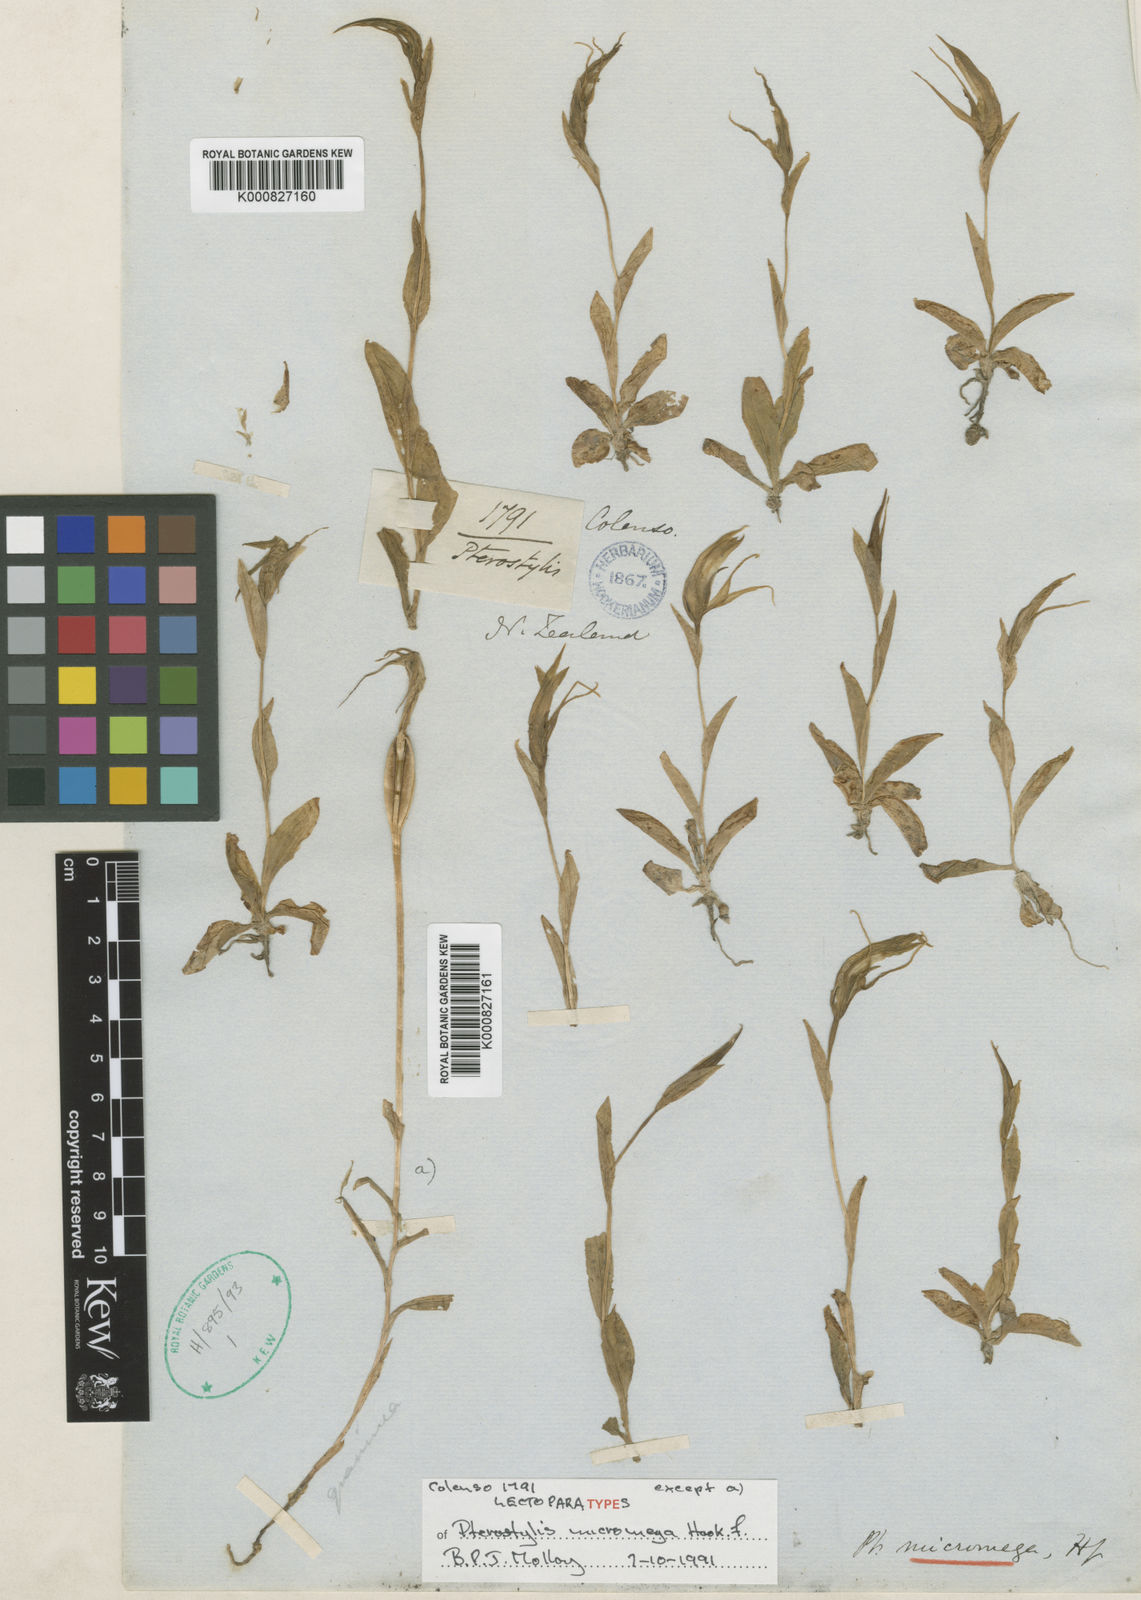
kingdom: Plantae
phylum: Tracheophyta
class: Liliopsida
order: Asparagales
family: Orchidaceae
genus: Pterostylis
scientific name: Pterostylis oliveri
